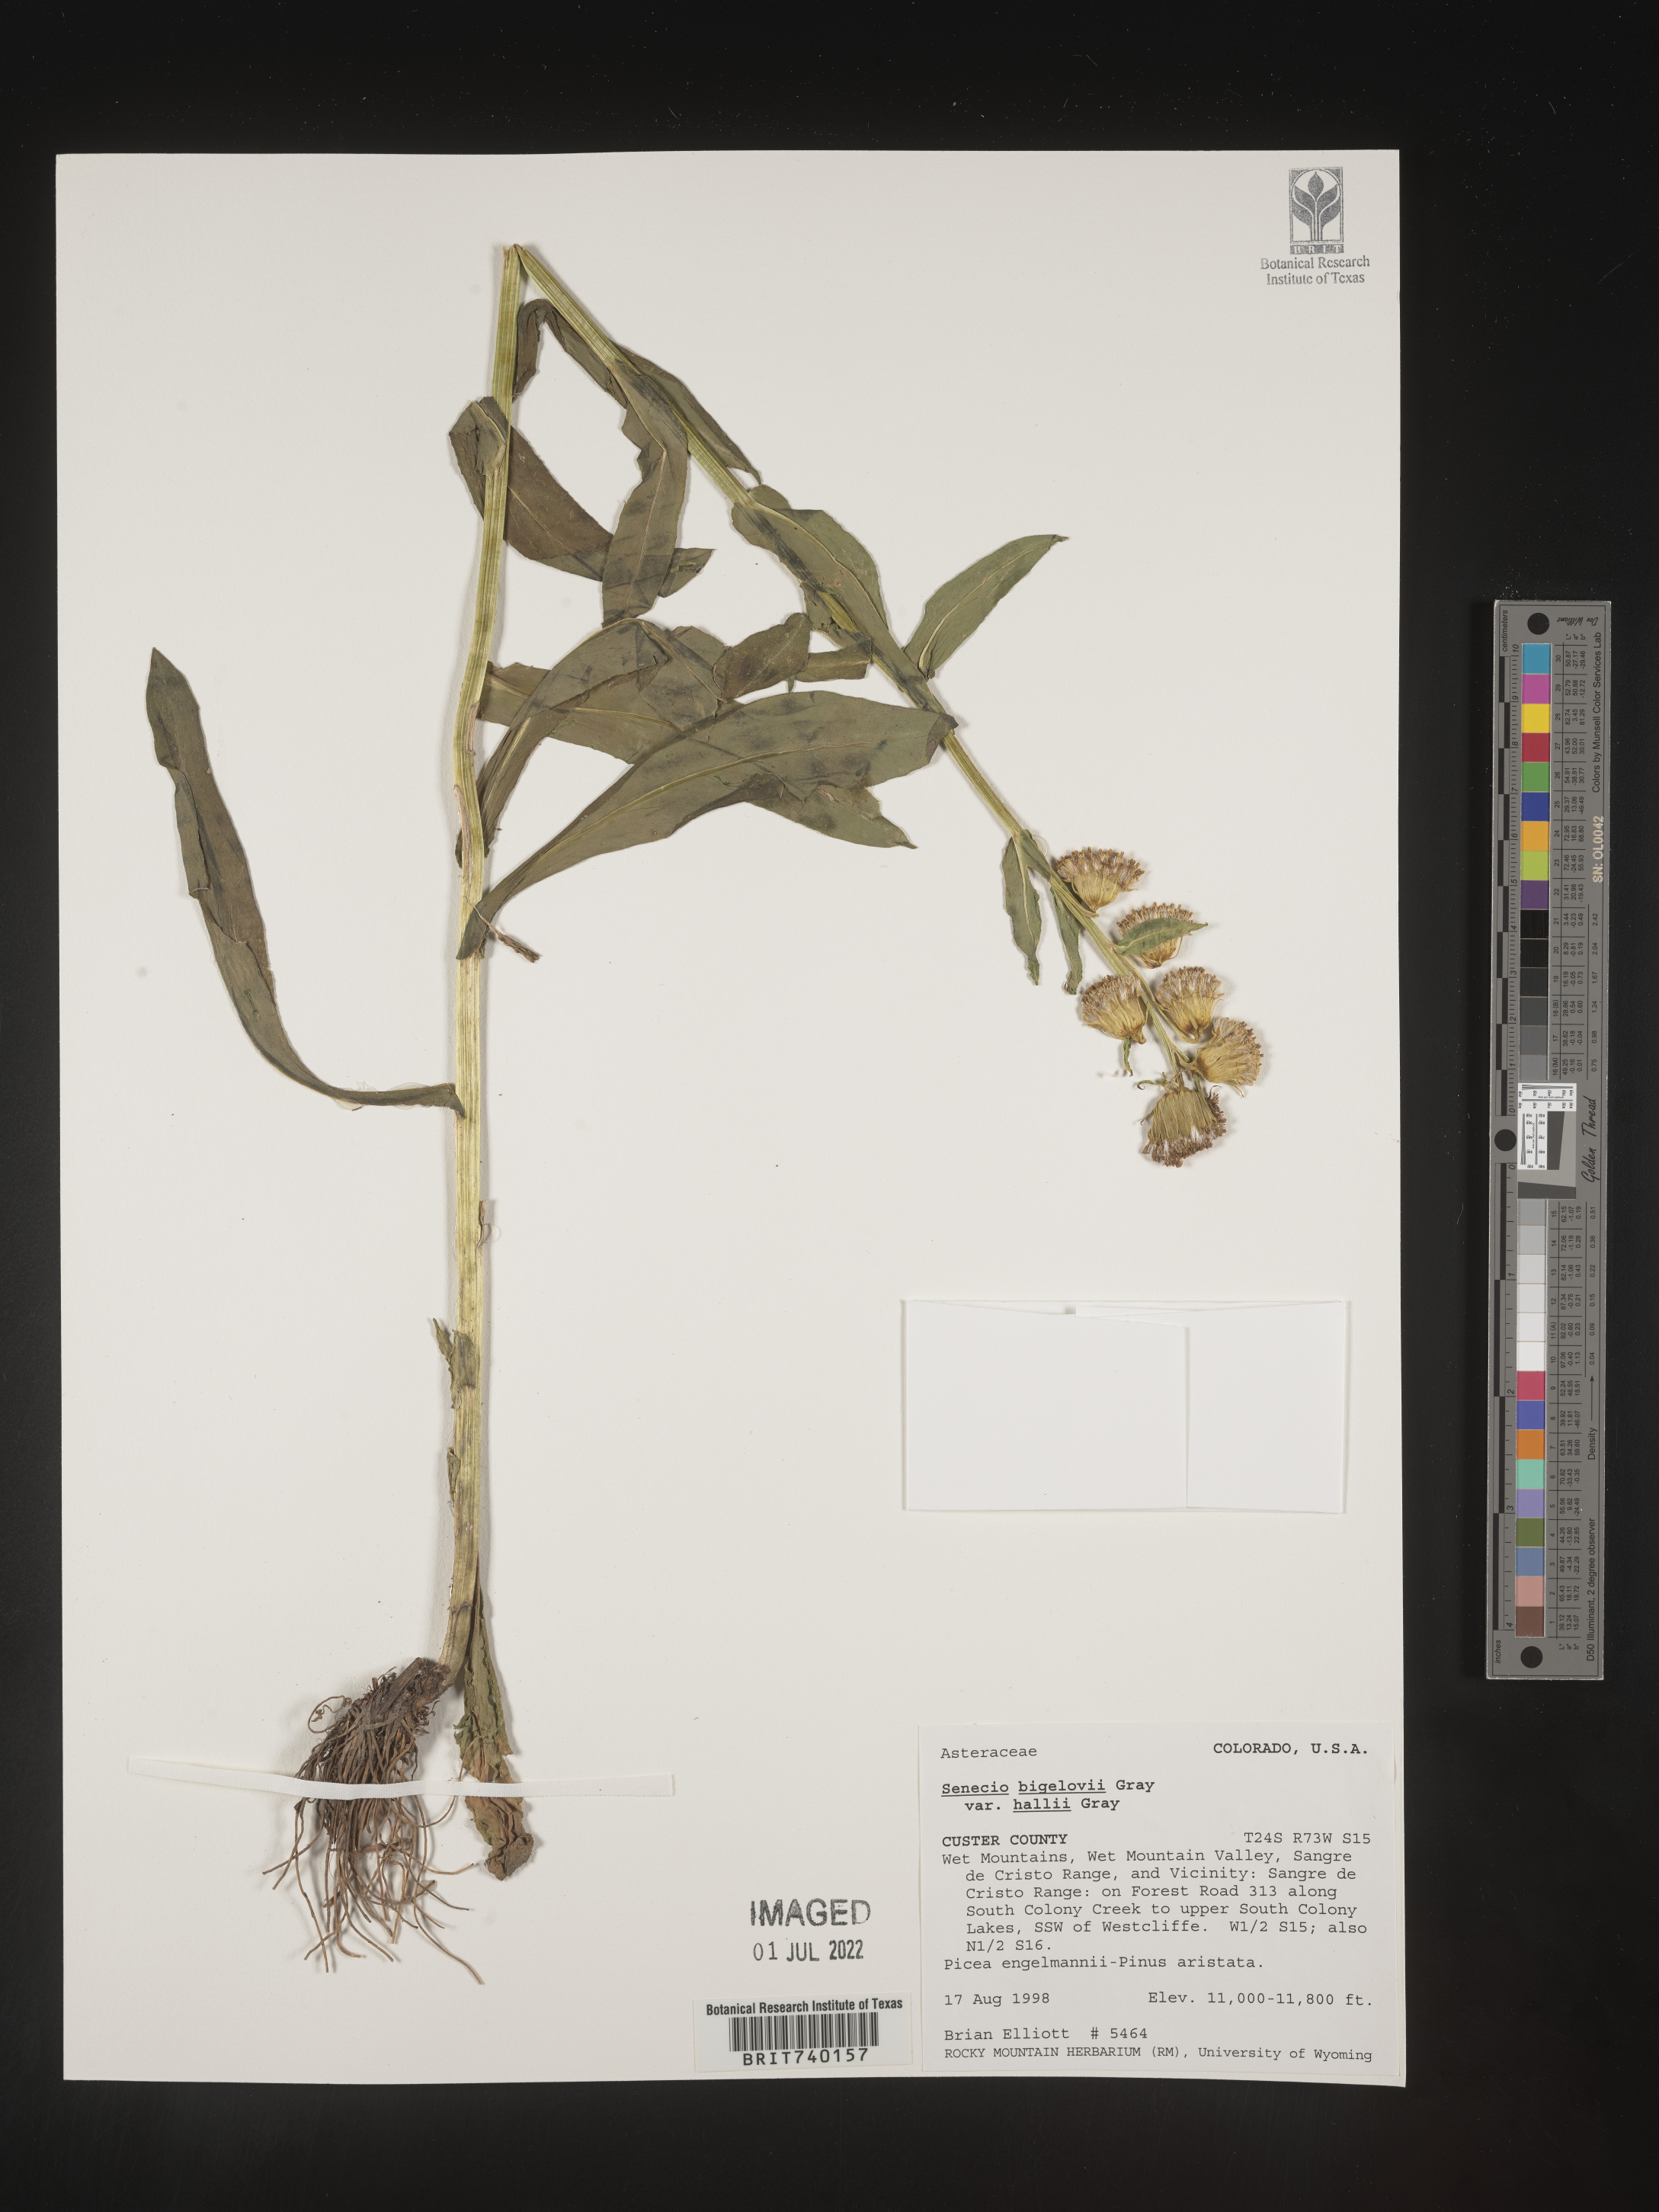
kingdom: Plantae
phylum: Tracheophyta
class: Magnoliopsida
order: Asterales
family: Asteraceae
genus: Senecio
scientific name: Senecio bigelovii
